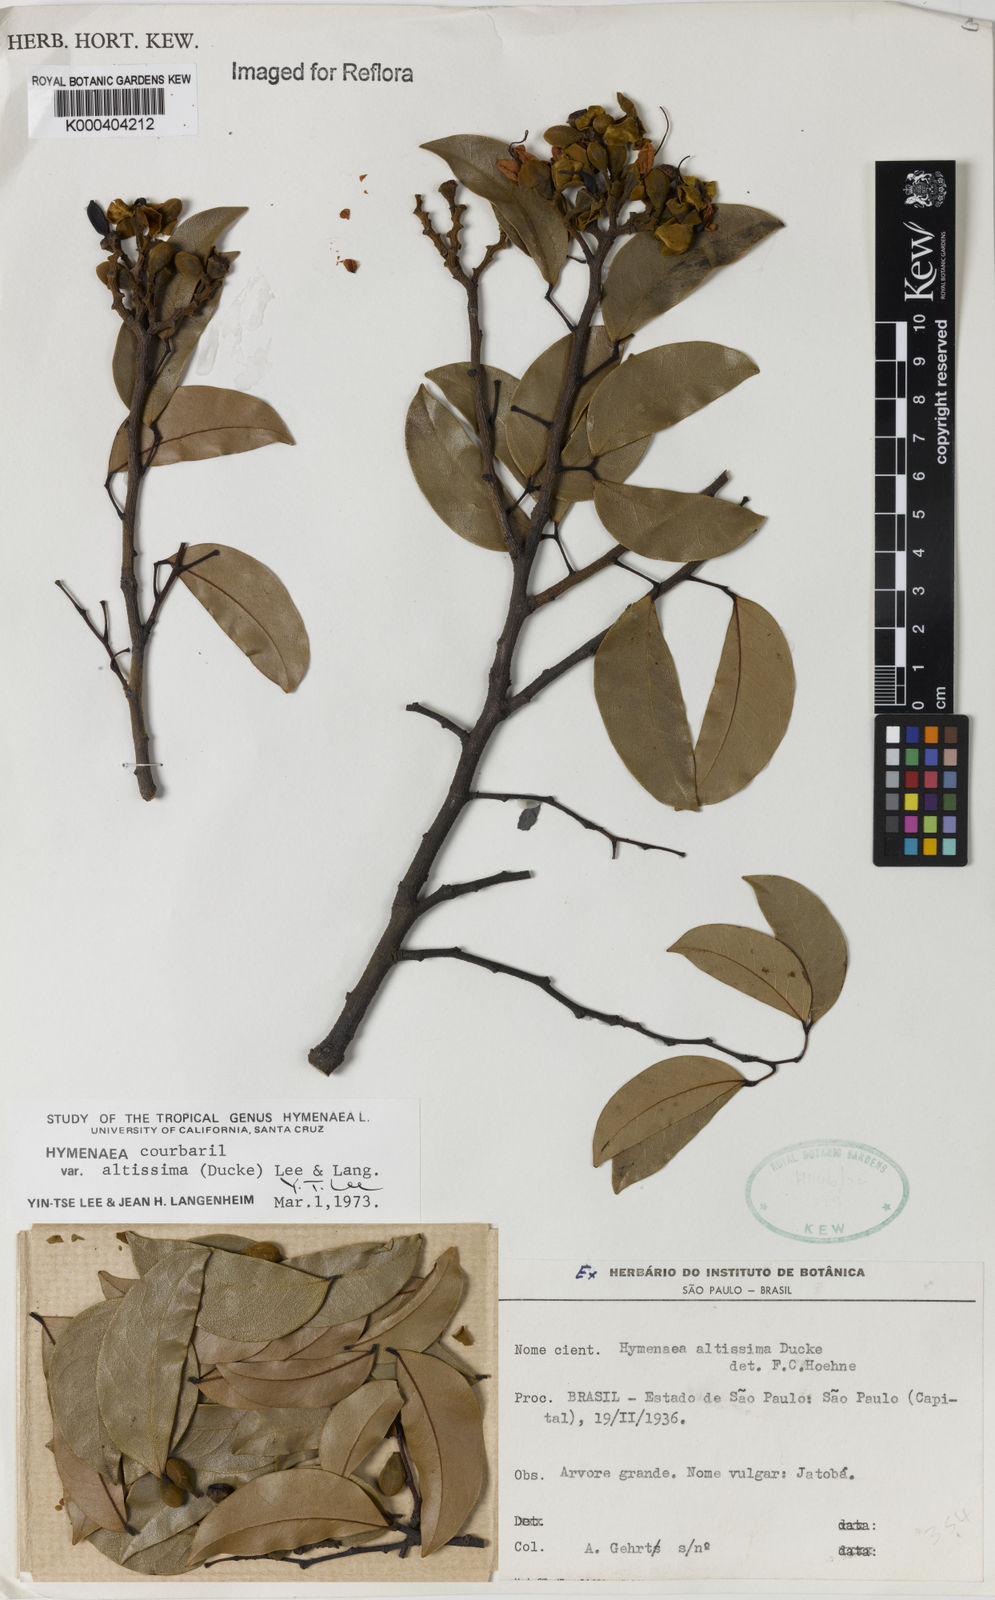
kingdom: Plantae
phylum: Tracheophyta
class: Magnoliopsida
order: Fabales
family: Fabaceae
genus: Hymenaea
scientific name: Hymenaea altissima
